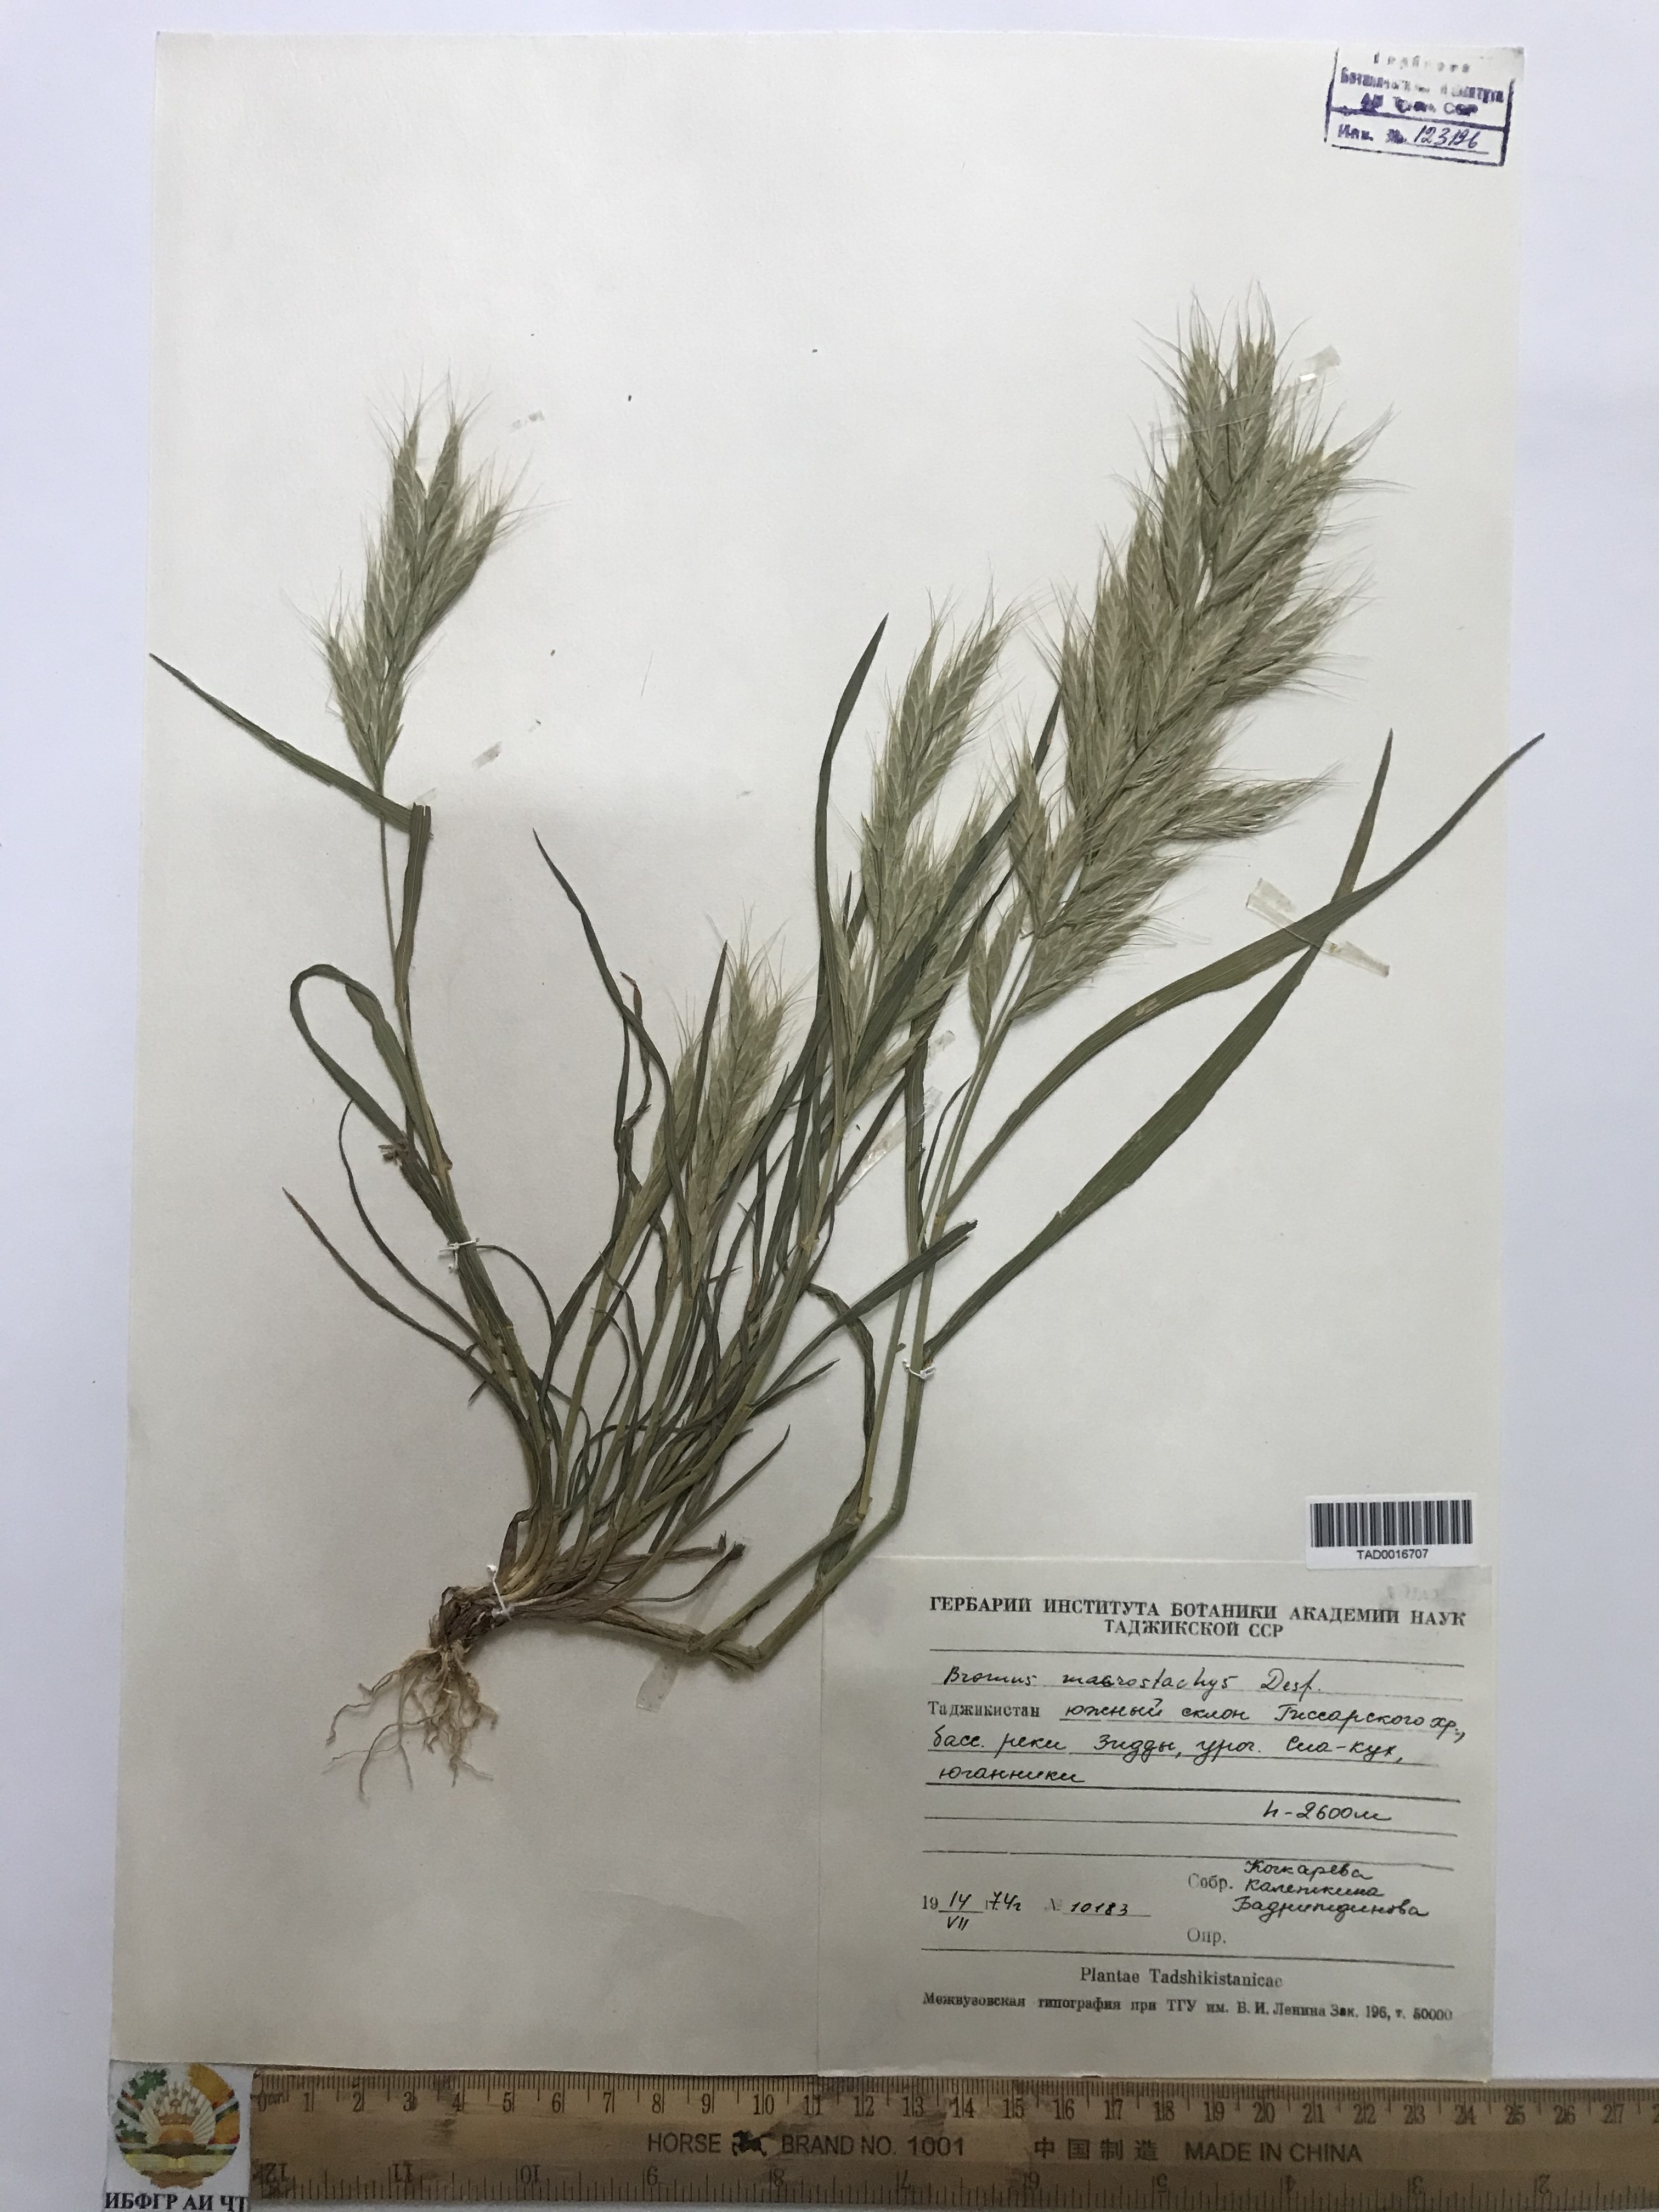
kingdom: Plantae
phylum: Tracheophyta
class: Liliopsida
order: Poales
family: Poaceae
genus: Bromus
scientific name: Bromus lanceolatus
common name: Mediterranean brome
